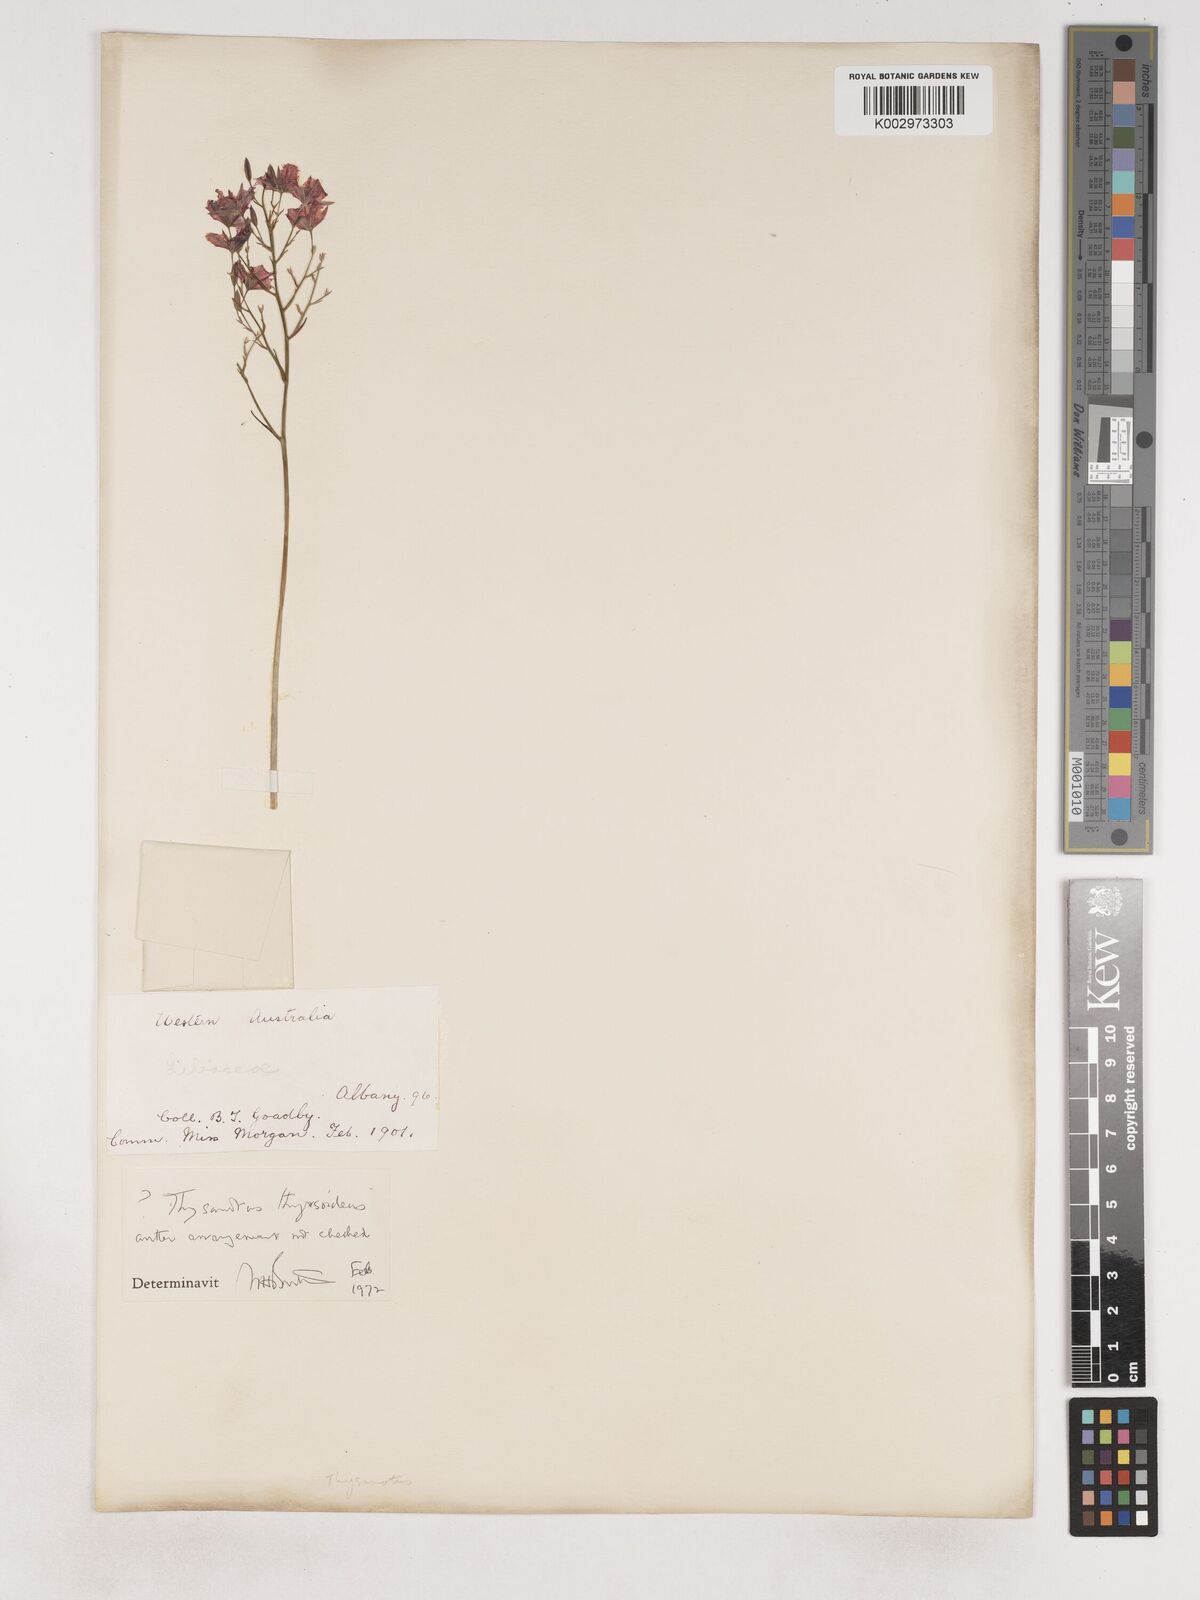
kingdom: Plantae
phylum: Tracheophyta
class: Liliopsida
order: Asparagales
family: Asparagaceae
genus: Thysanotus
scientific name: Thysanotus thyrsoideus
